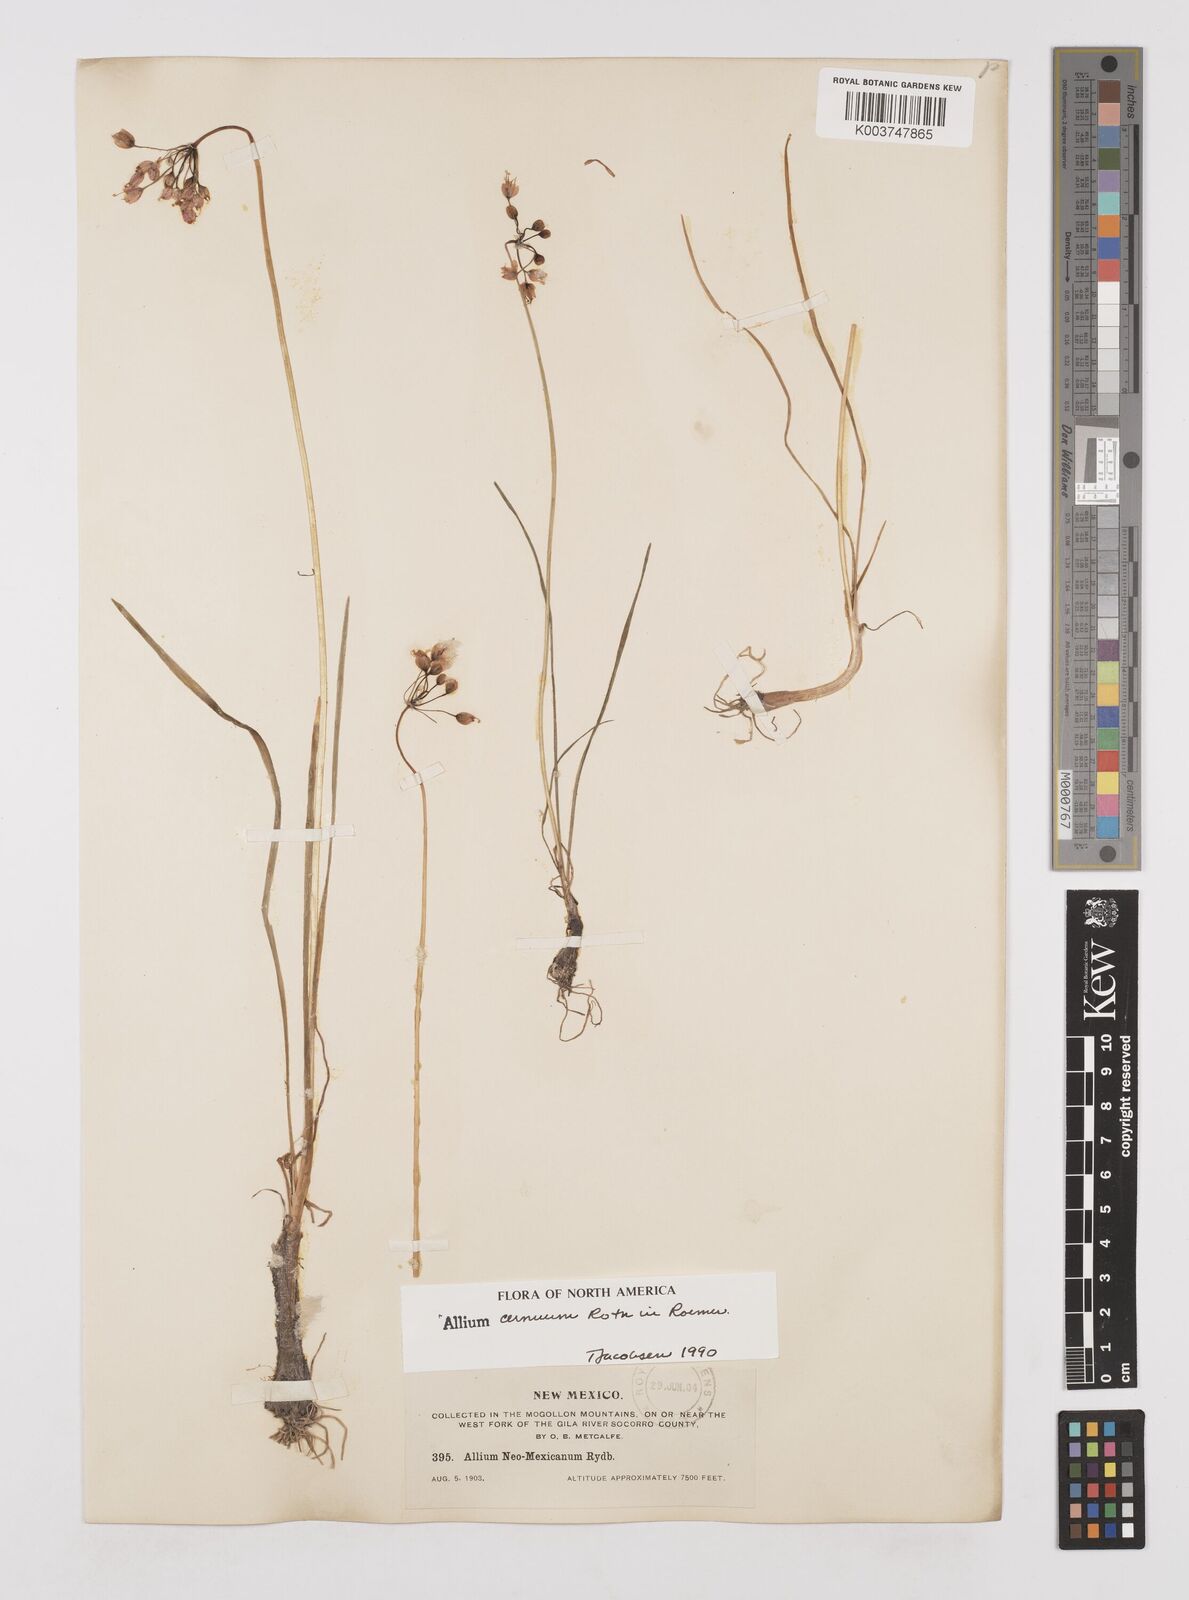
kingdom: Plantae
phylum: Tracheophyta
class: Liliopsida
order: Asparagales
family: Amaryllidaceae
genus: Allium
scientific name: Allium cernuum
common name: Nodding onion
